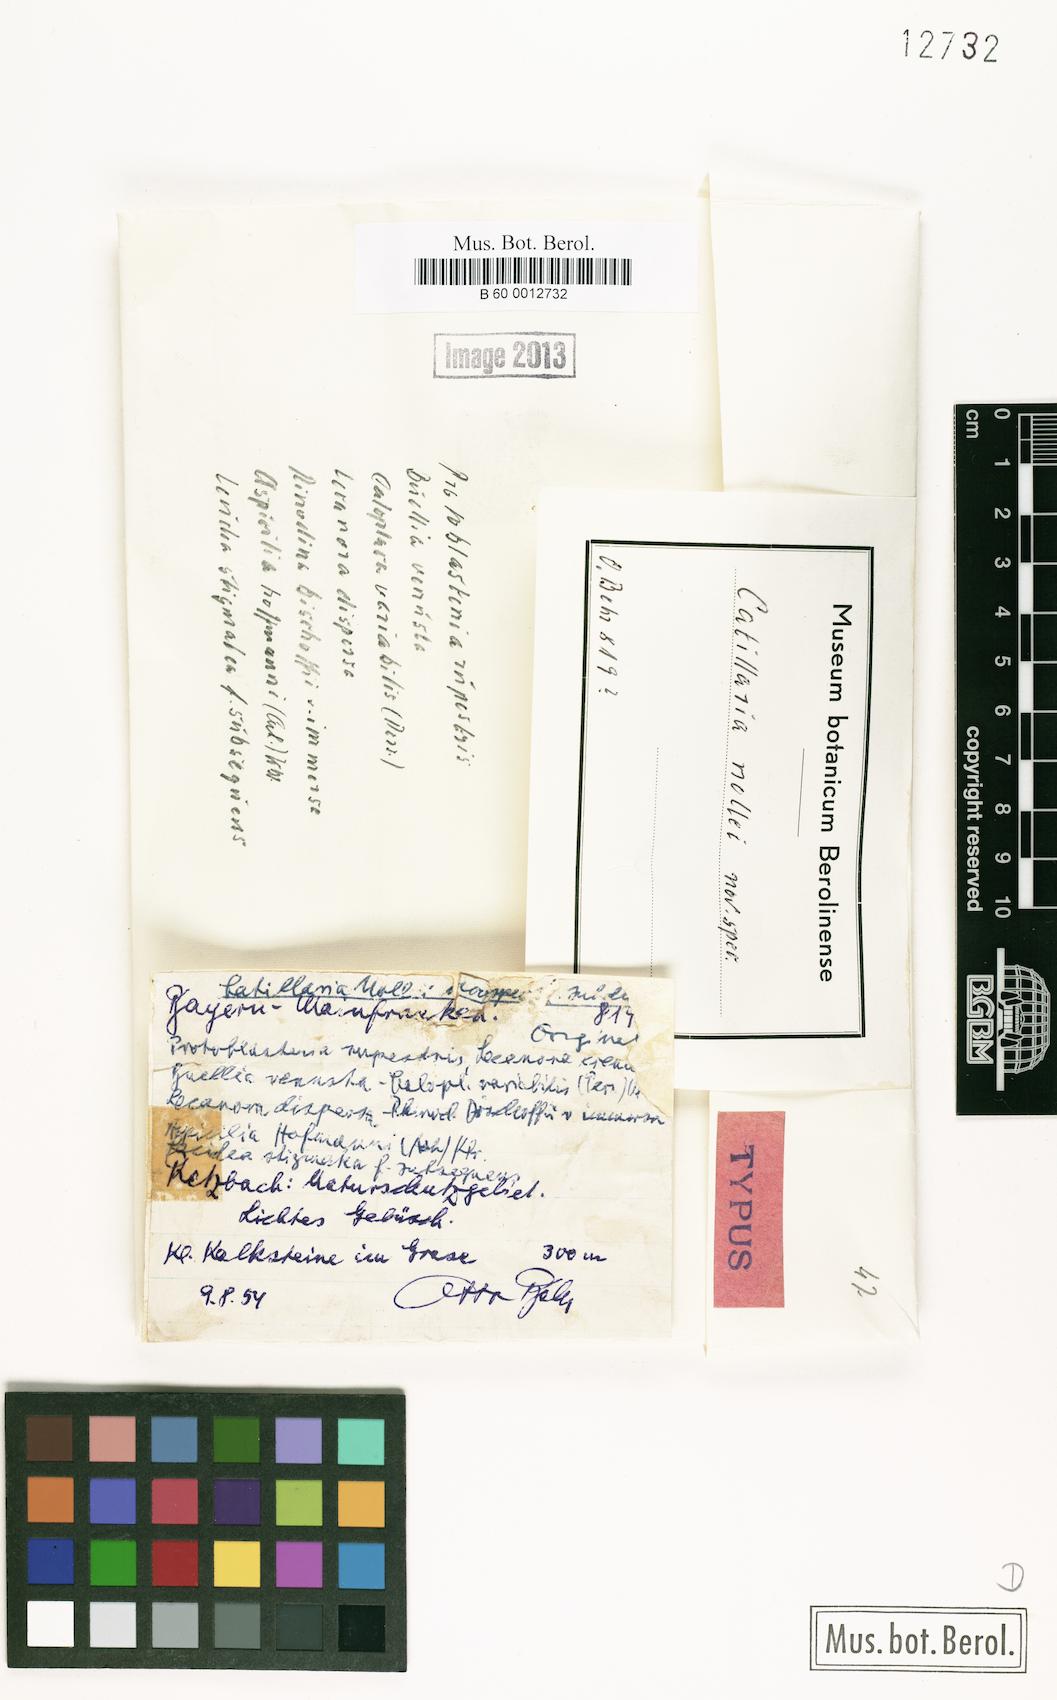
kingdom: Fungi
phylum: Ascomycota
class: Lecanoromycetes
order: Lecanorales
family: Catillariaceae
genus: Catillaria
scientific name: Catillaria
